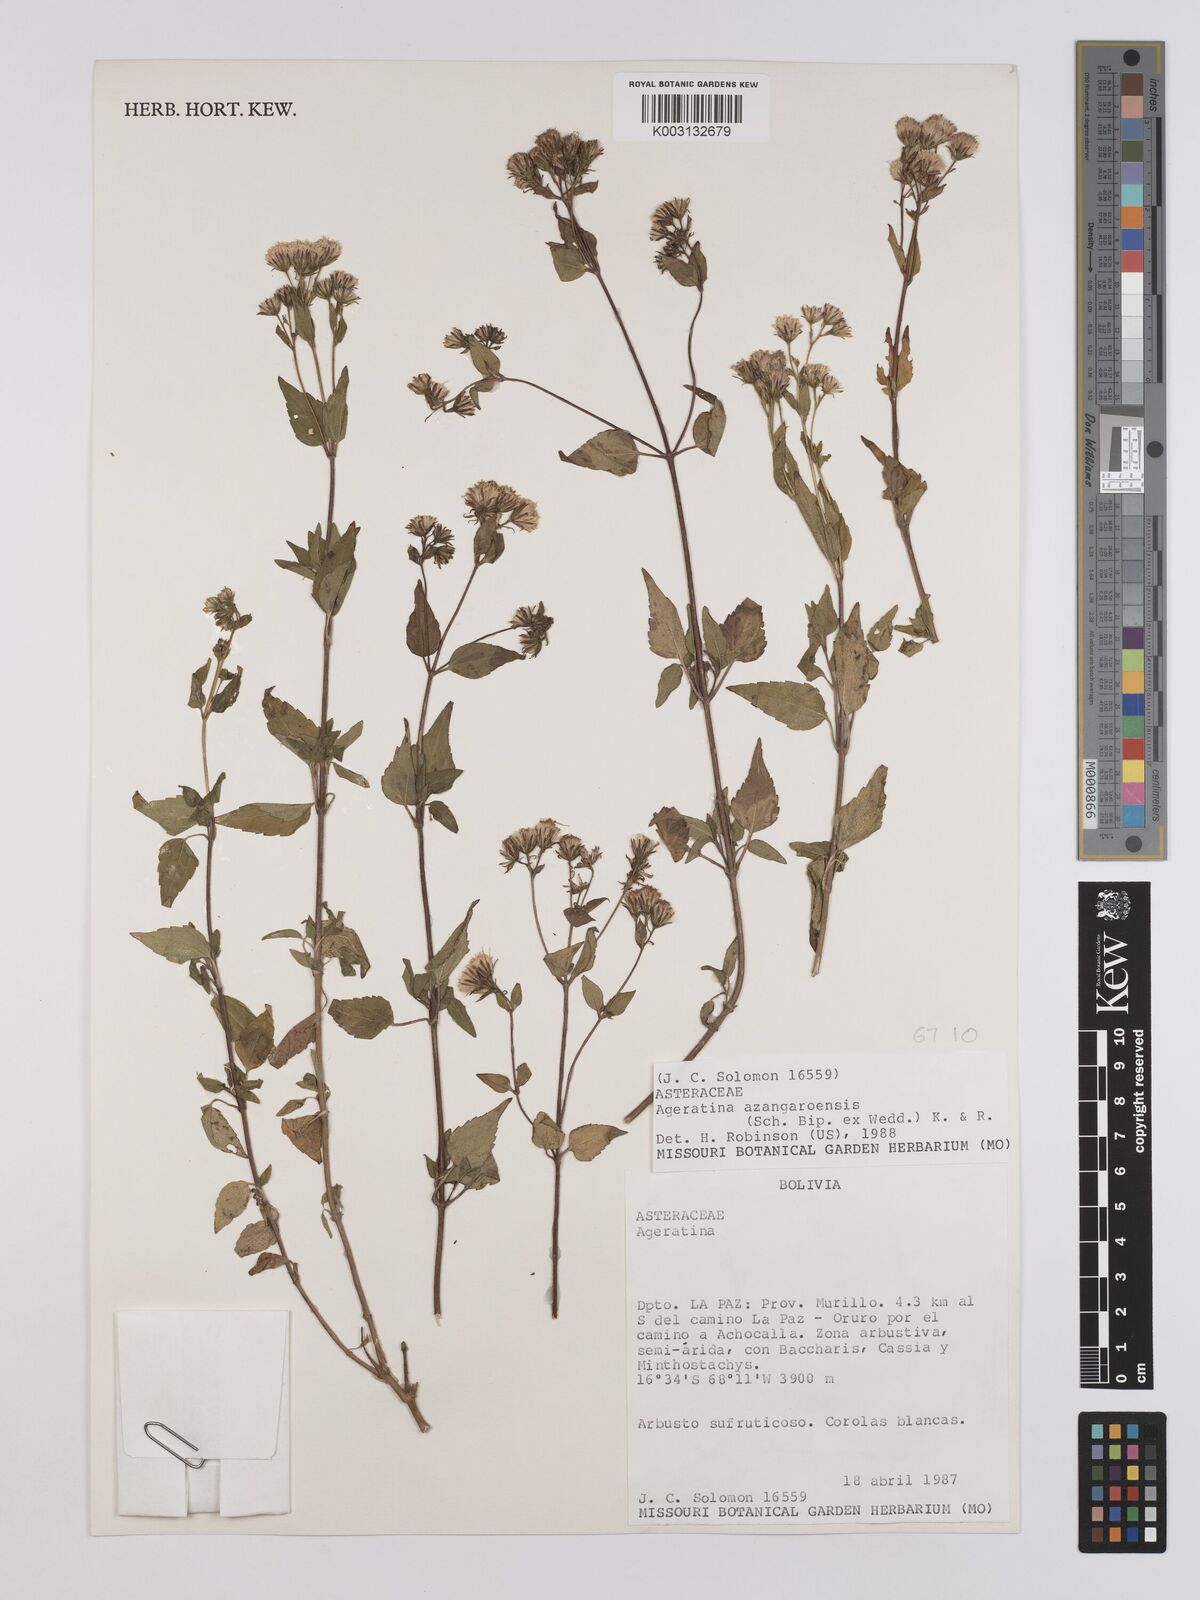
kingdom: Plantae
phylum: Tracheophyta
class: Magnoliopsida
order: Asterales
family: Asteraceae
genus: Ageratina
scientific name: Ageratina glechonophylla
